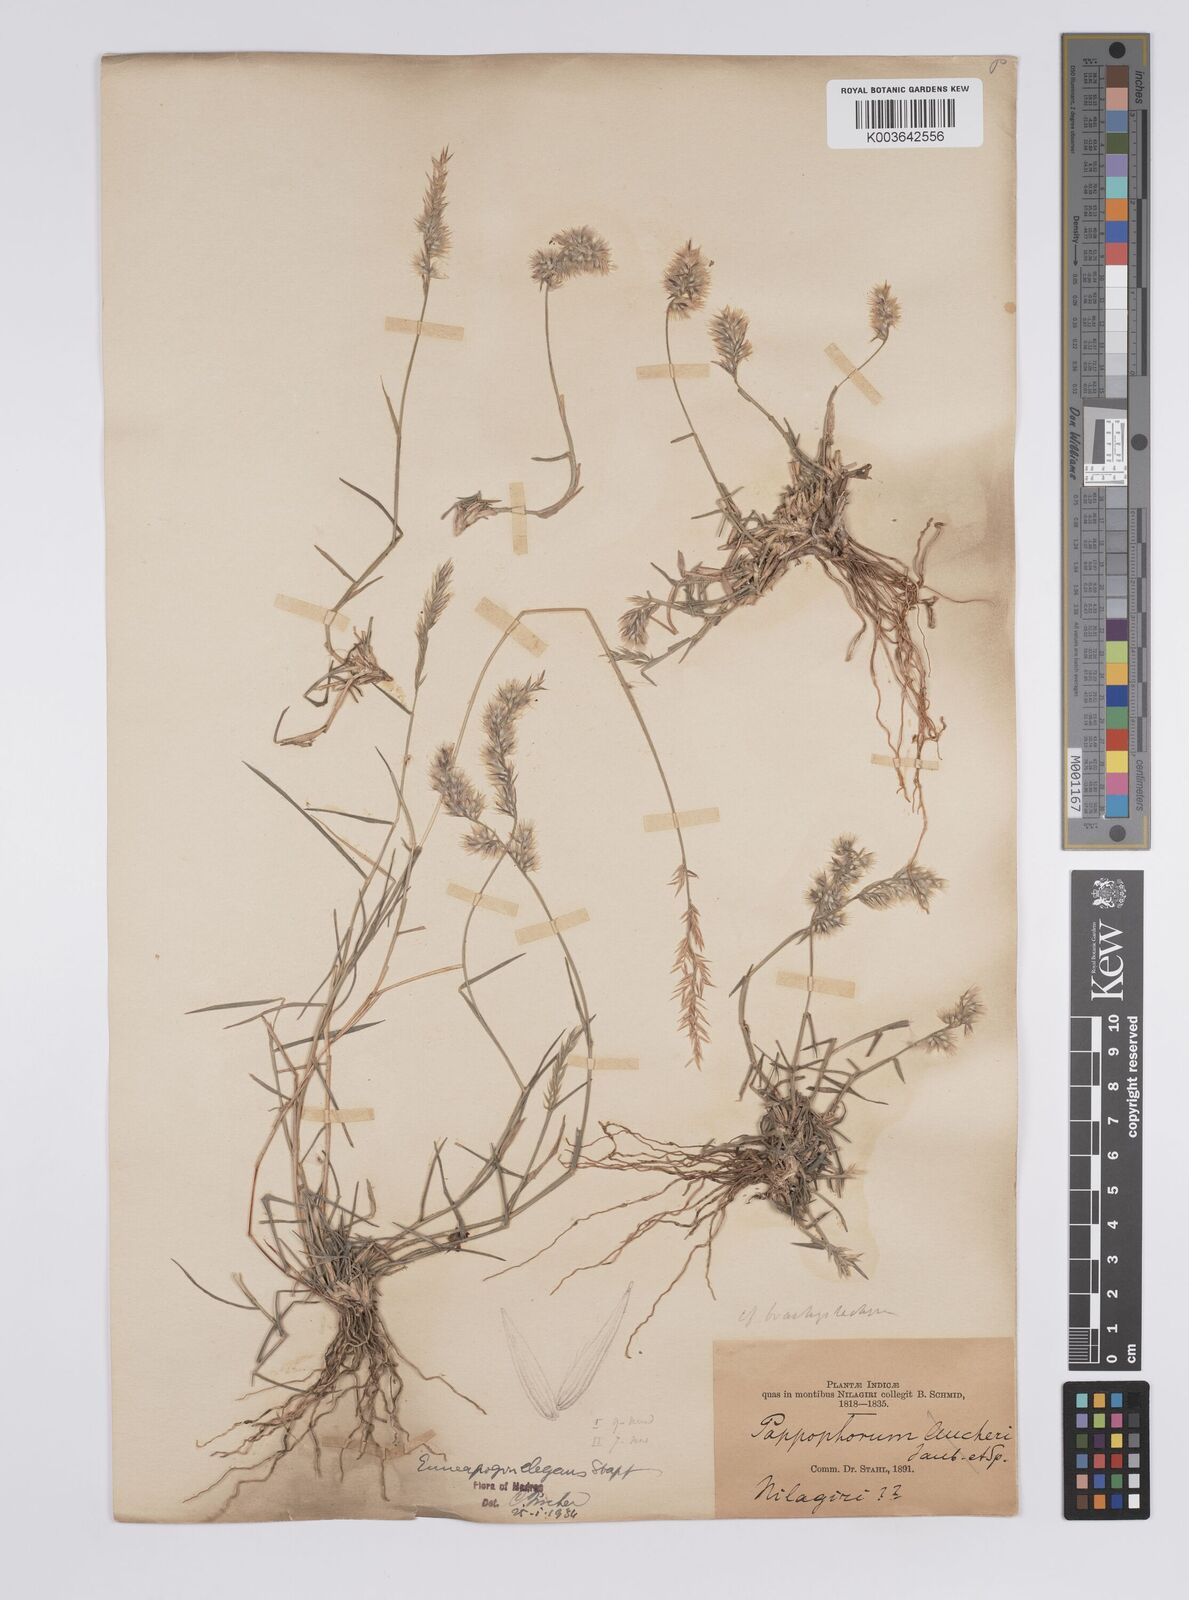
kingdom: Plantae
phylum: Tracheophyta
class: Liliopsida
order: Poales
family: Poaceae
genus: Enneapogon
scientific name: Enneapogon persicus
